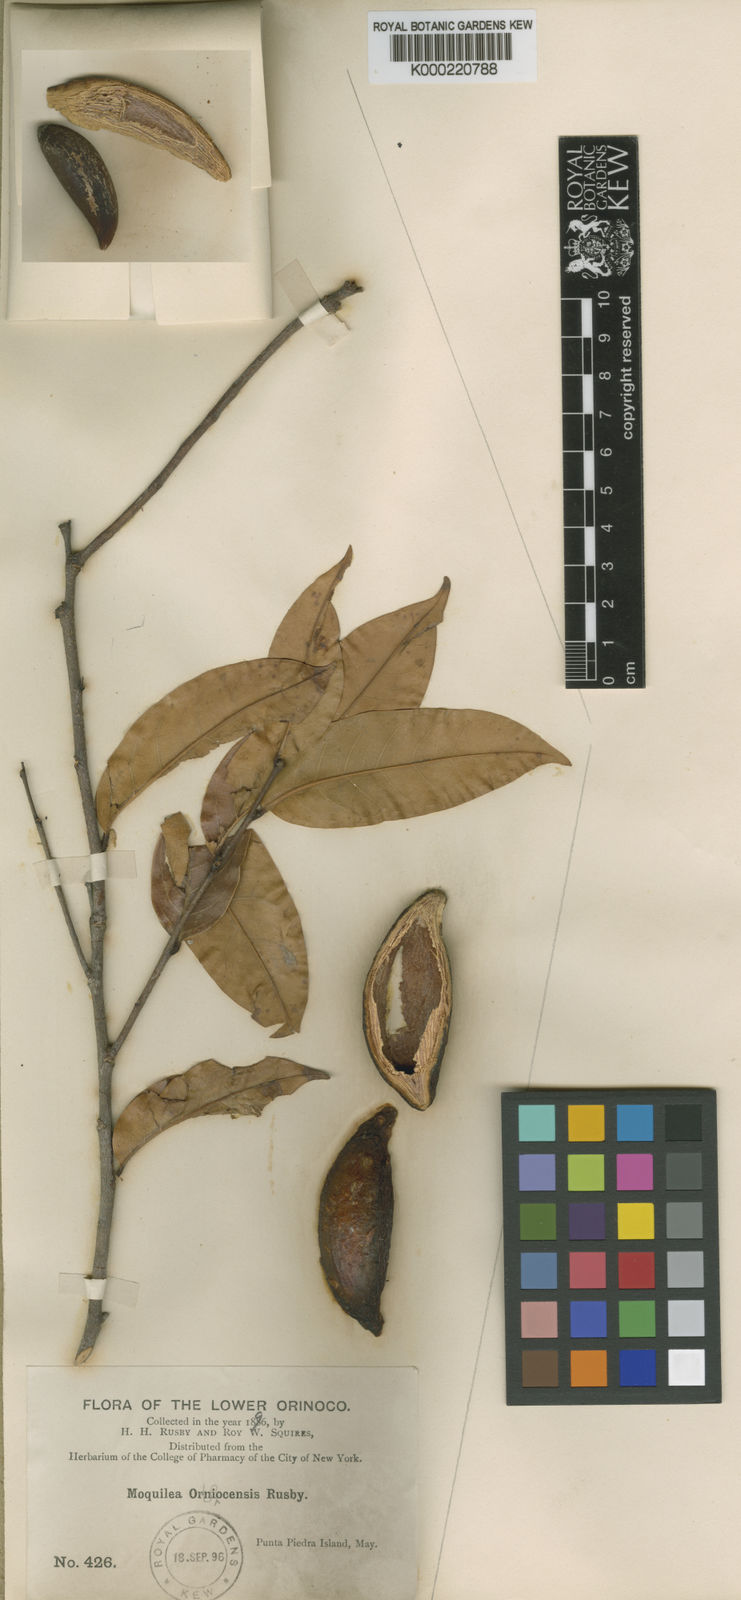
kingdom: Plantae
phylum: Tracheophyta
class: Magnoliopsida
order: Malpighiales
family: Chrysobalanaceae
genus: Leptobalanus
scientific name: Leptobalanus apetalus
